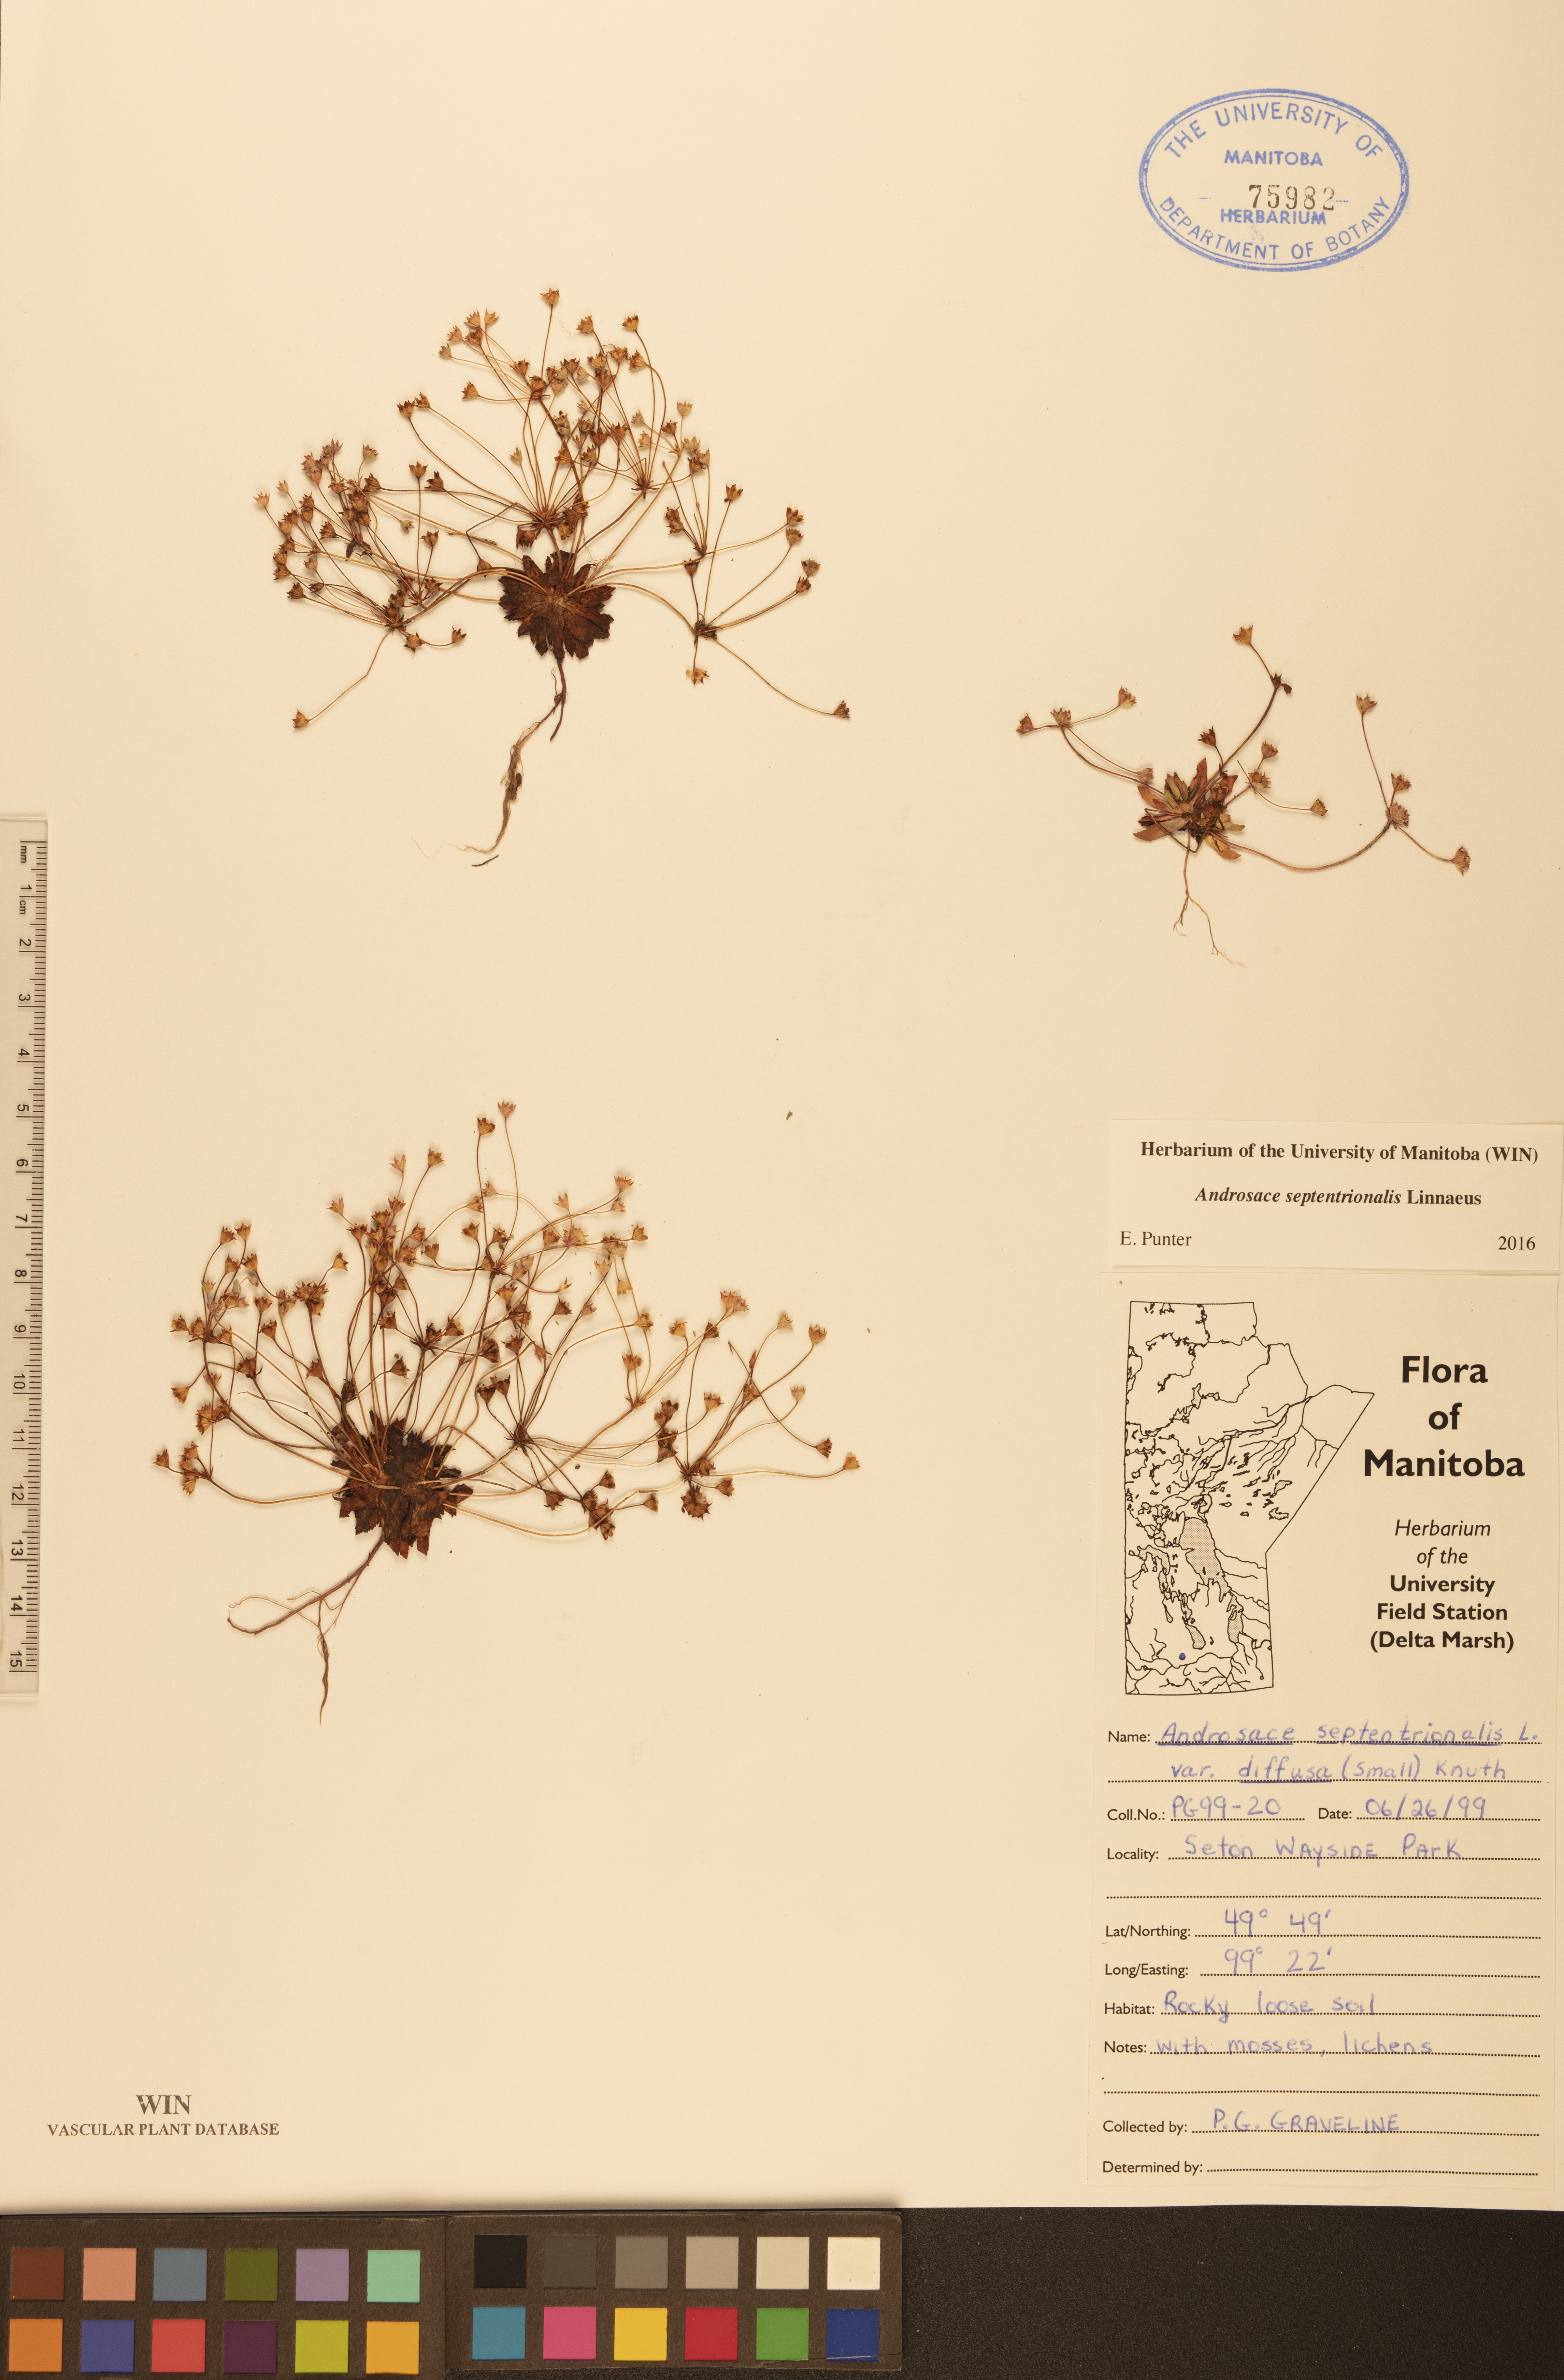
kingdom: Plantae
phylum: Tracheophyta
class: Magnoliopsida
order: Ericales
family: Primulaceae
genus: Androsace
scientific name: Androsace septentrionalis
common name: Hairy northern fairy-candelabra
